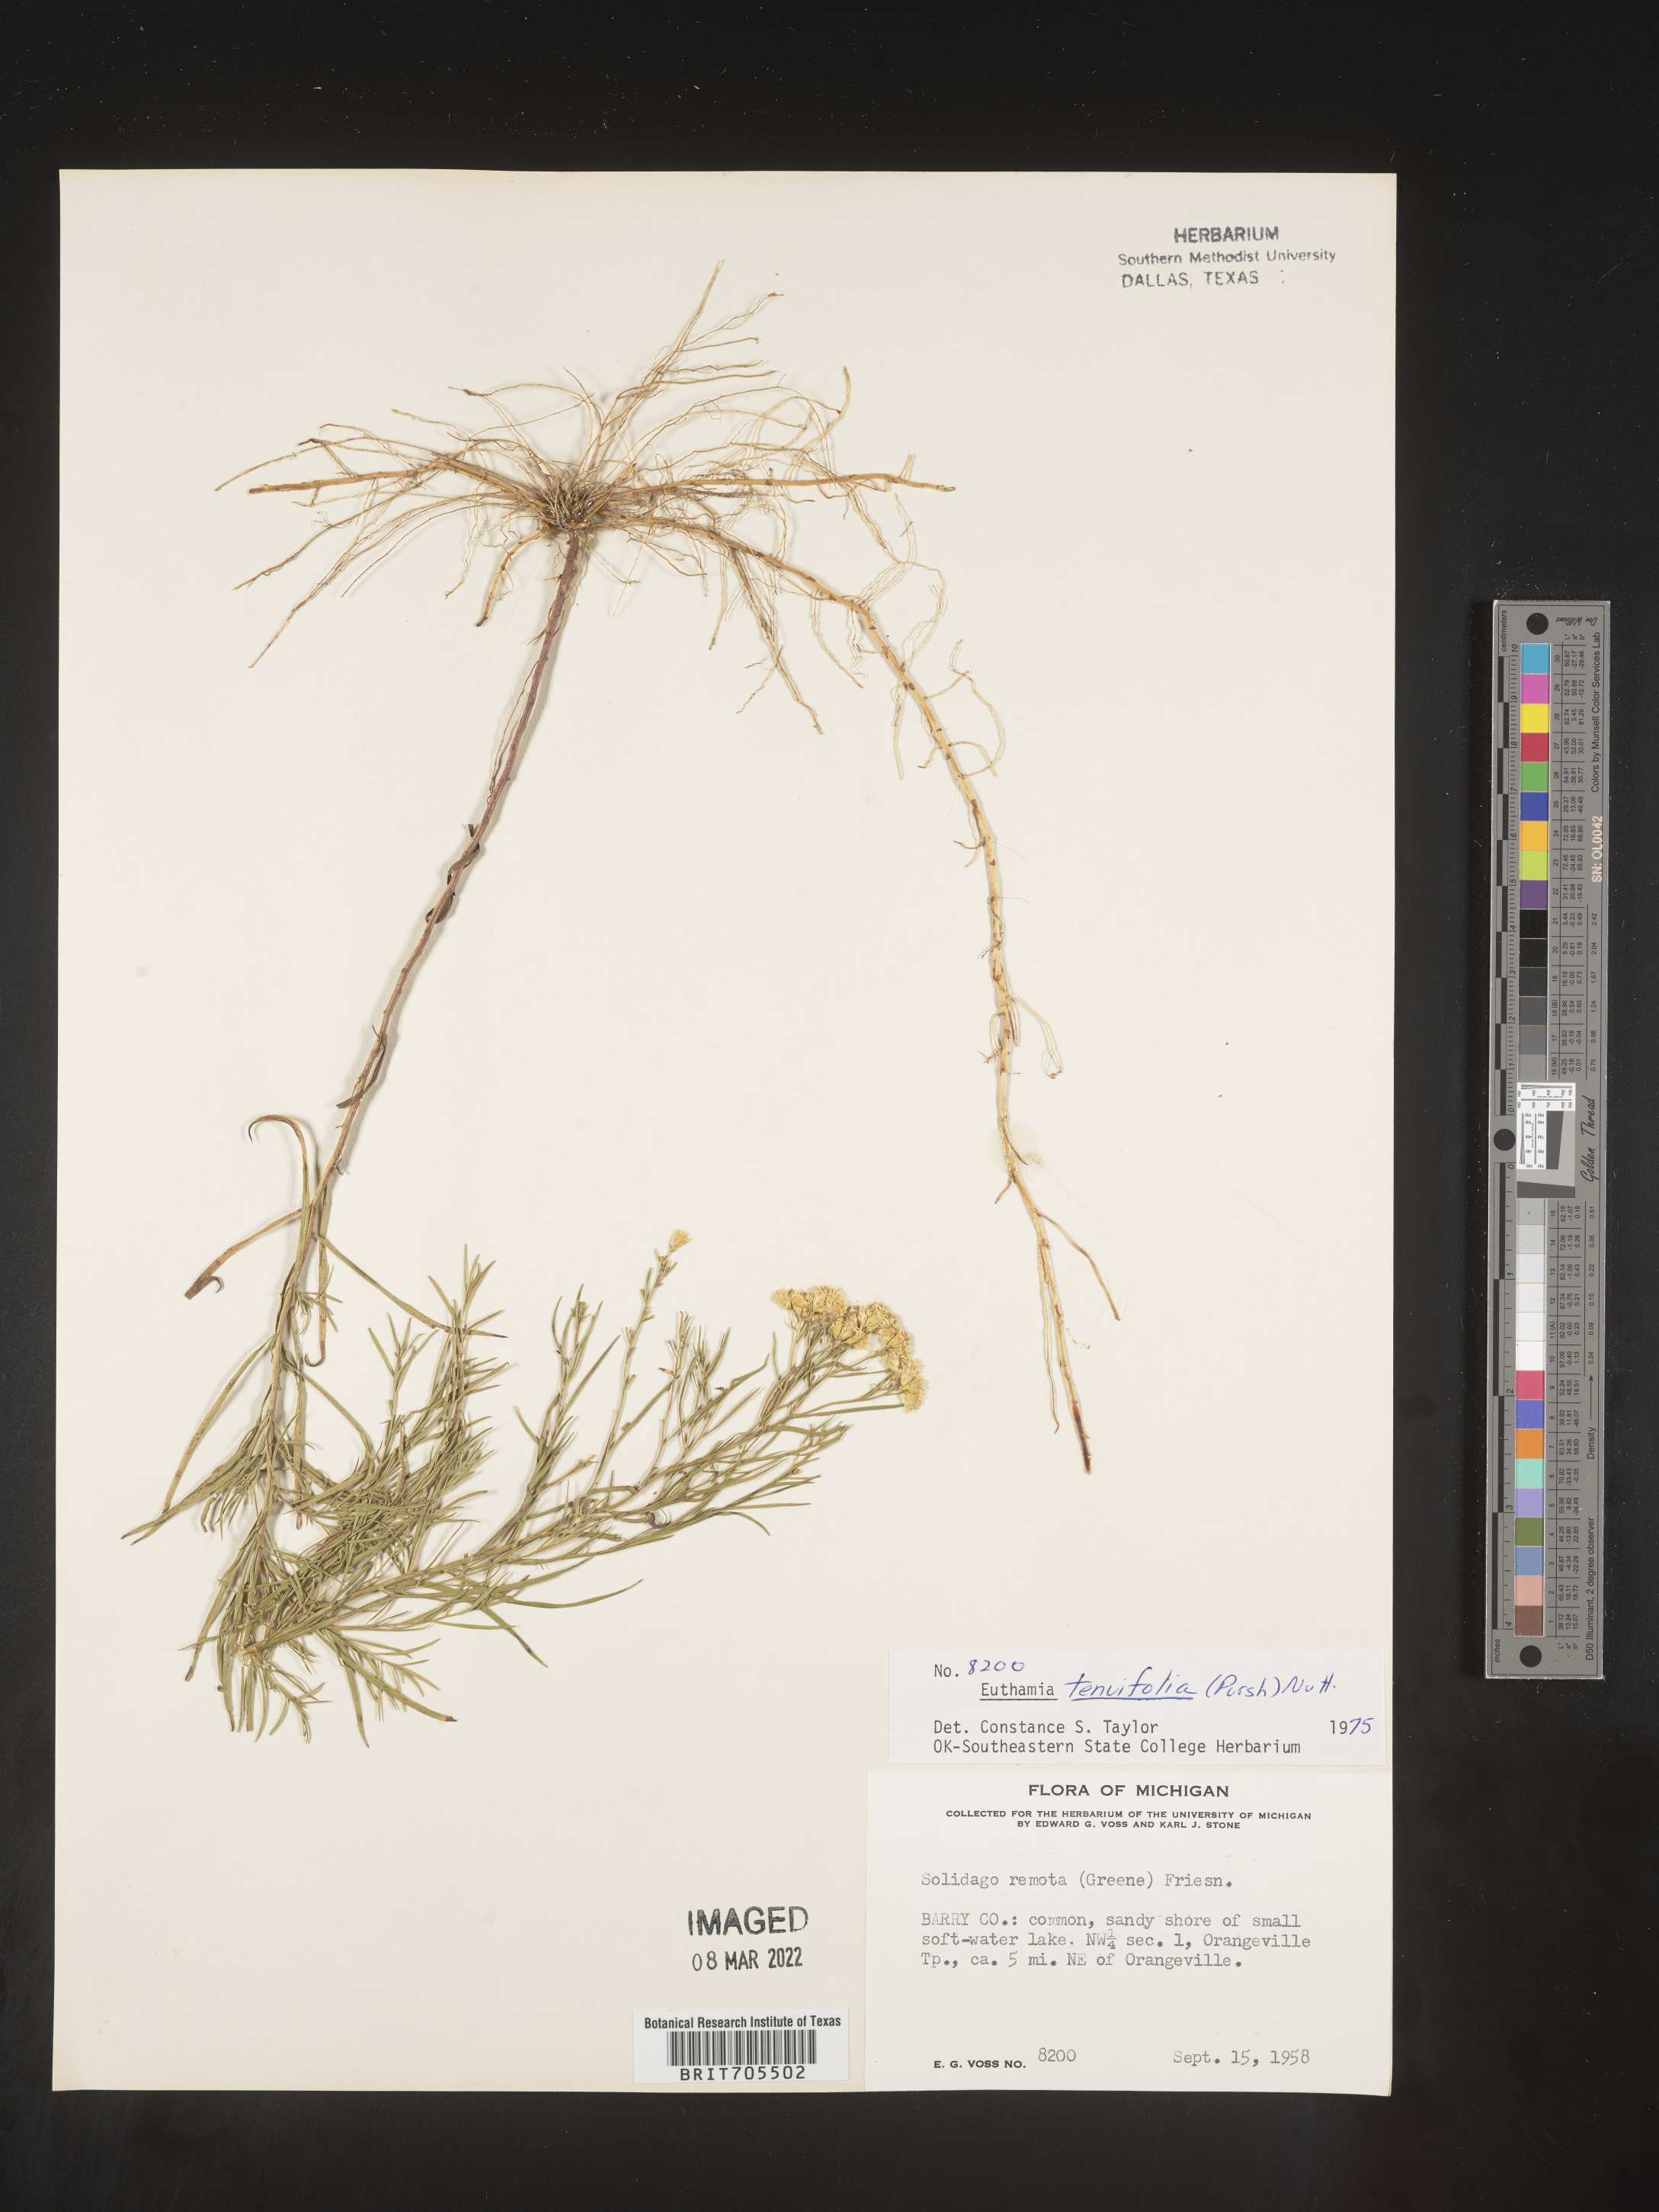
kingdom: Plantae
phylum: Tracheophyta
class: Magnoliopsida
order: Asterales
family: Asteraceae
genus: Euthamia
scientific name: Euthamia caroliniana
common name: Coastal plain goldentop
